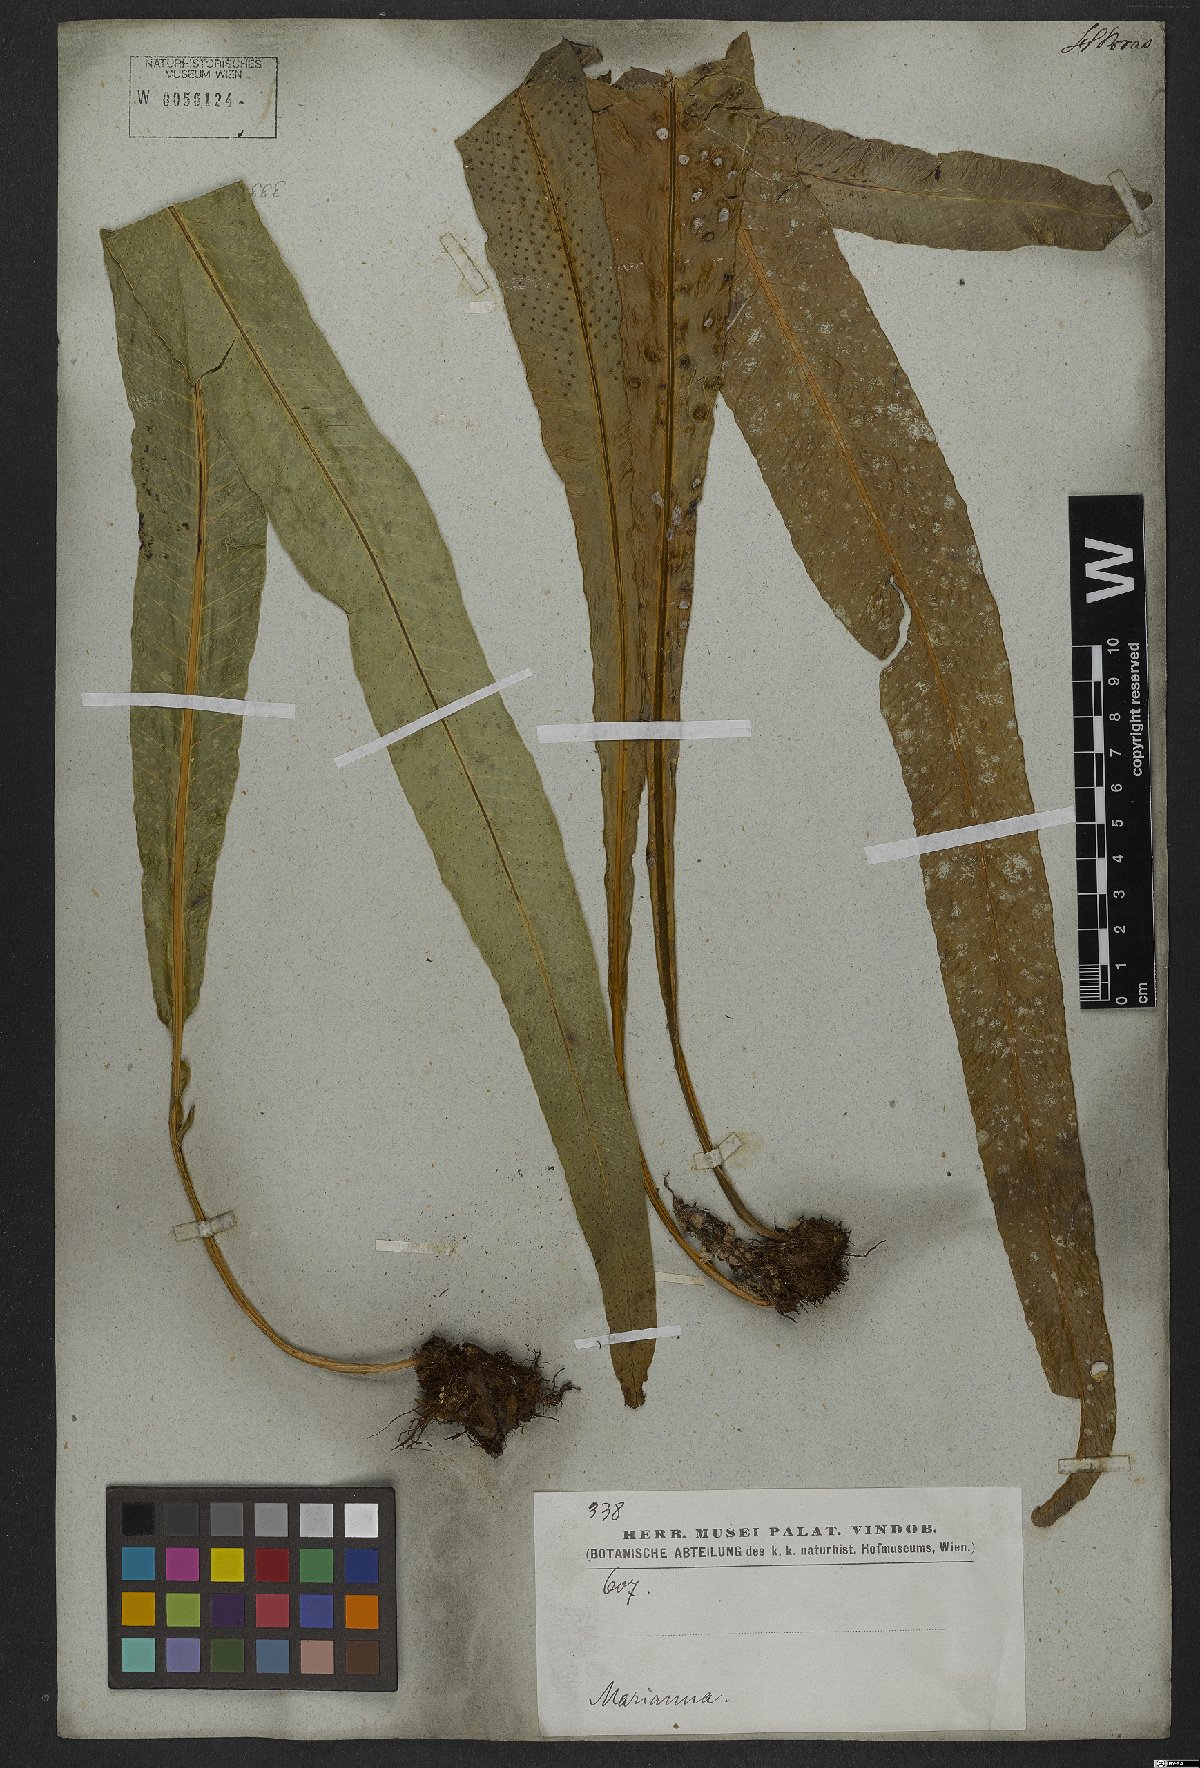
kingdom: Plantae
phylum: Tracheophyta
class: Polypodiopsida
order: Polypodiales
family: Polypodiaceae
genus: Campyloneurum
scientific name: Campyloneurum phyllitidis
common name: Cow-tongue fern
